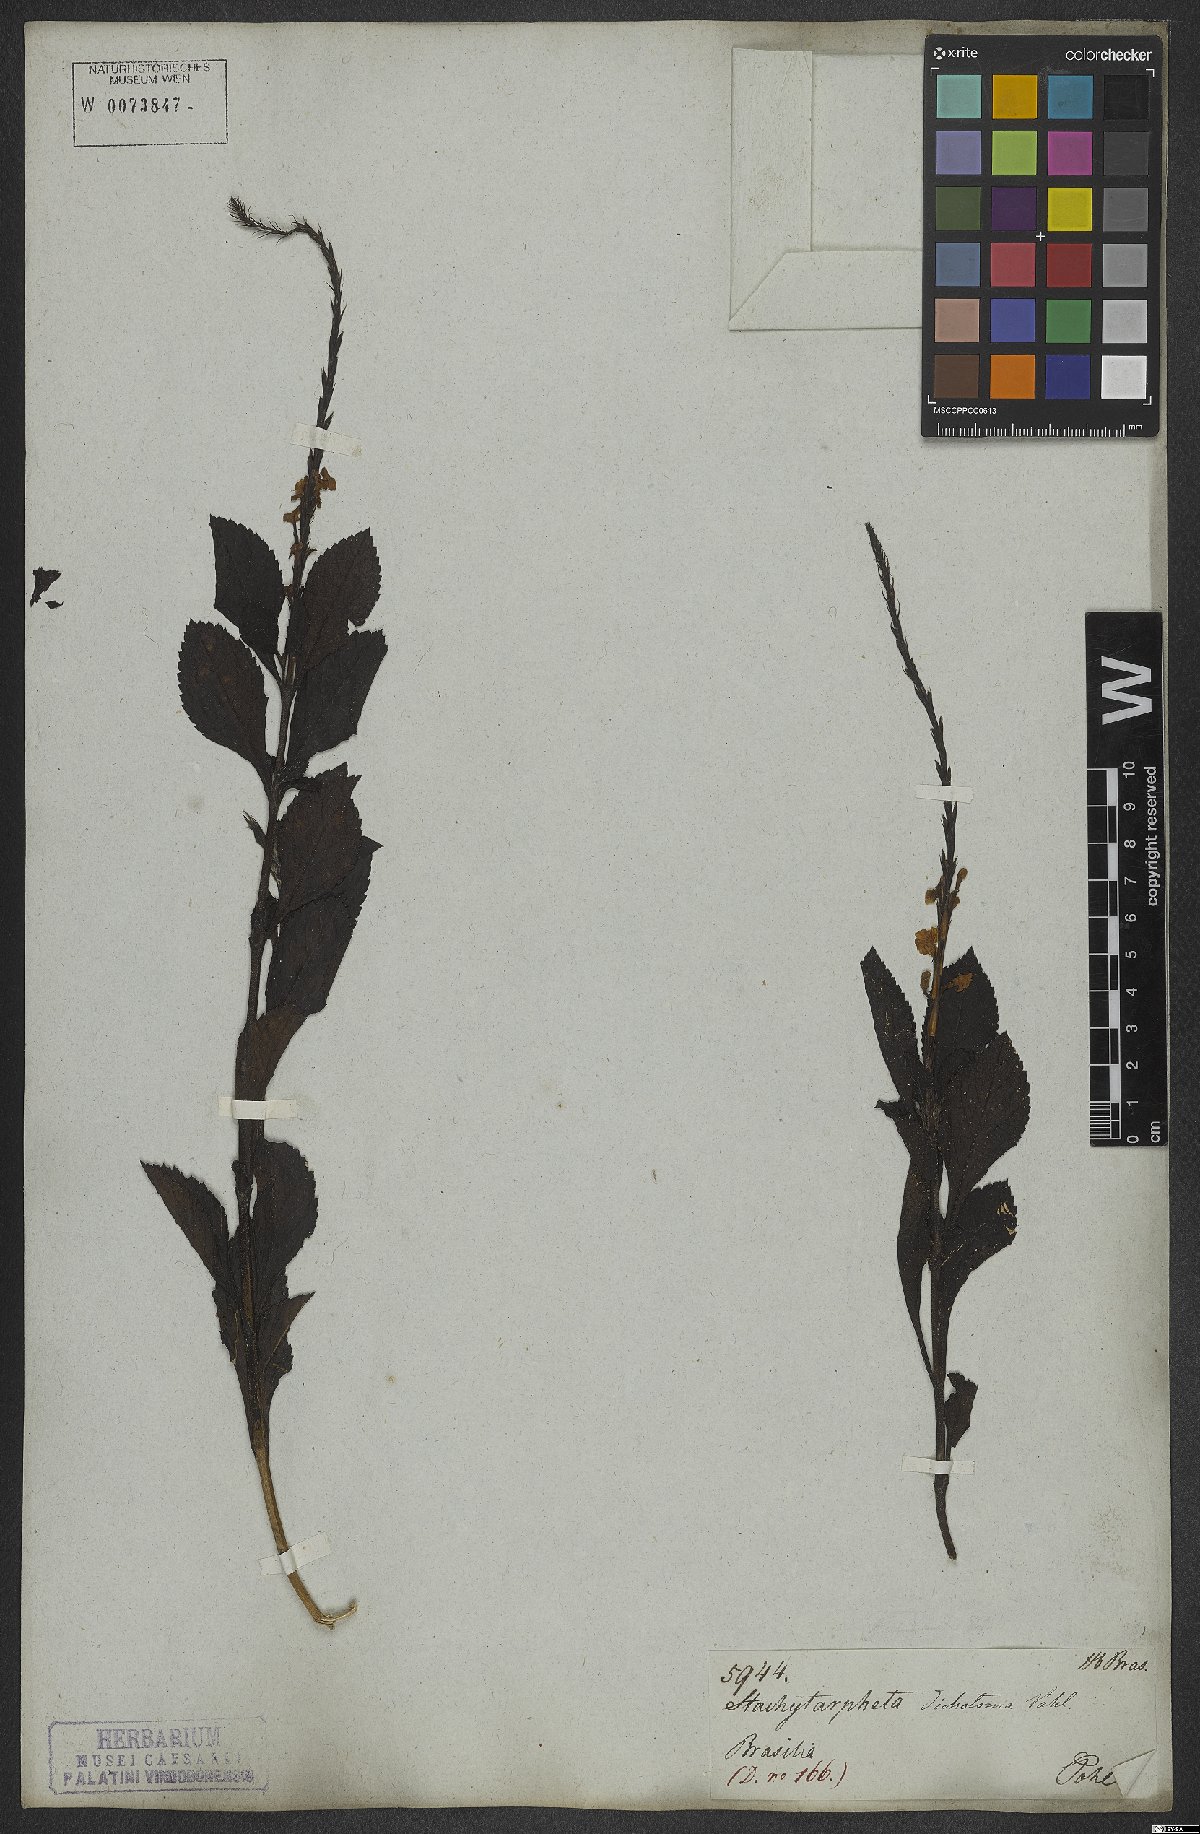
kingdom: Plantae
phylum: Tracheophyta
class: Magnoliopsida
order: Lamiales
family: Verbenaceae
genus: Stachytarpheta
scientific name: Stachytarpheta cayennensis
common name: Cayenne porterweed
